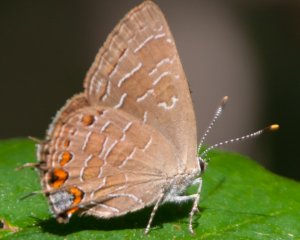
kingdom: Animalia
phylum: Arthropoda
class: Insecta
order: Lepidoptera
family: Lycaenidae
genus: Satyrium
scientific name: Satyrium liparops
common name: Striped Hairstreak
